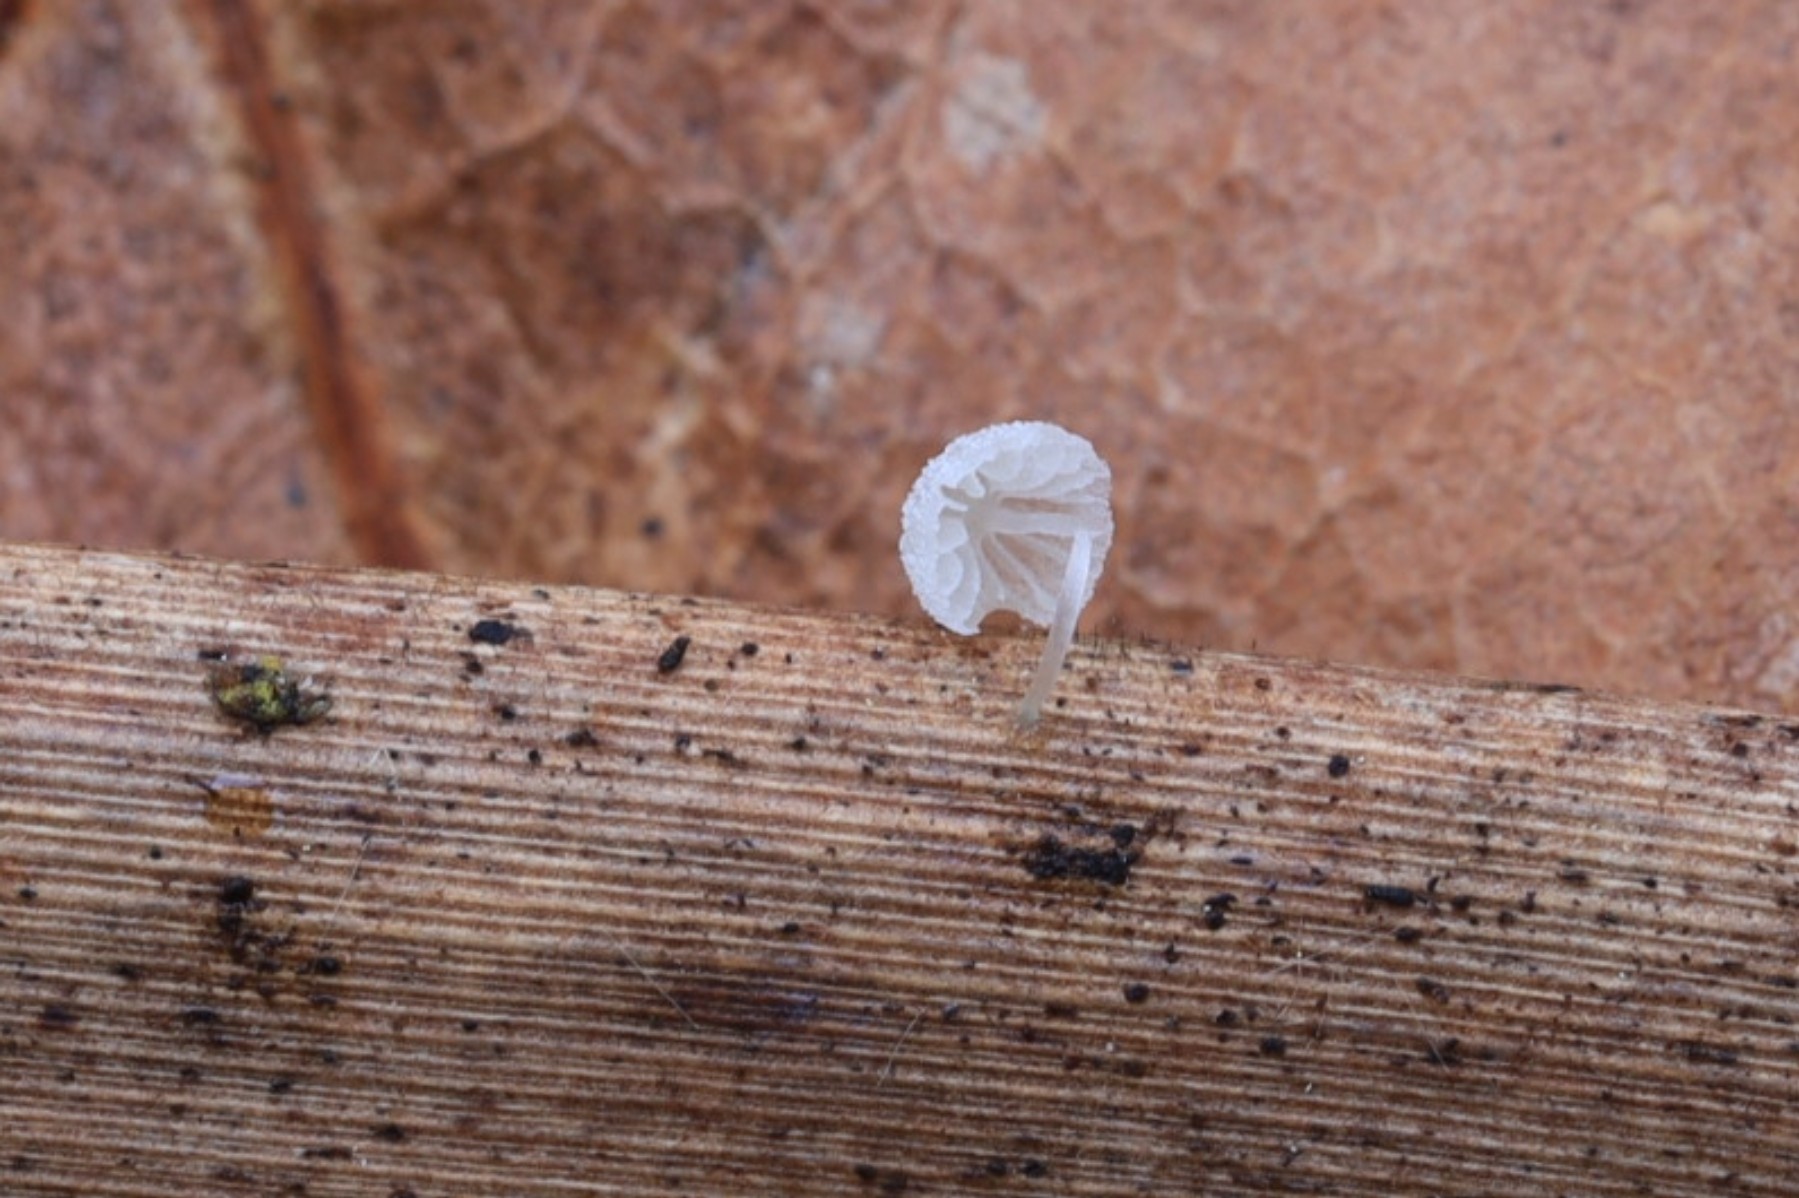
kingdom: Fungi
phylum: Basidiomycota
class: Agaricomycetes
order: Agaricales
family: Mycenaceae
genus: Mycena
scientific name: Mycena tenerrima
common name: pudret huesvamp
